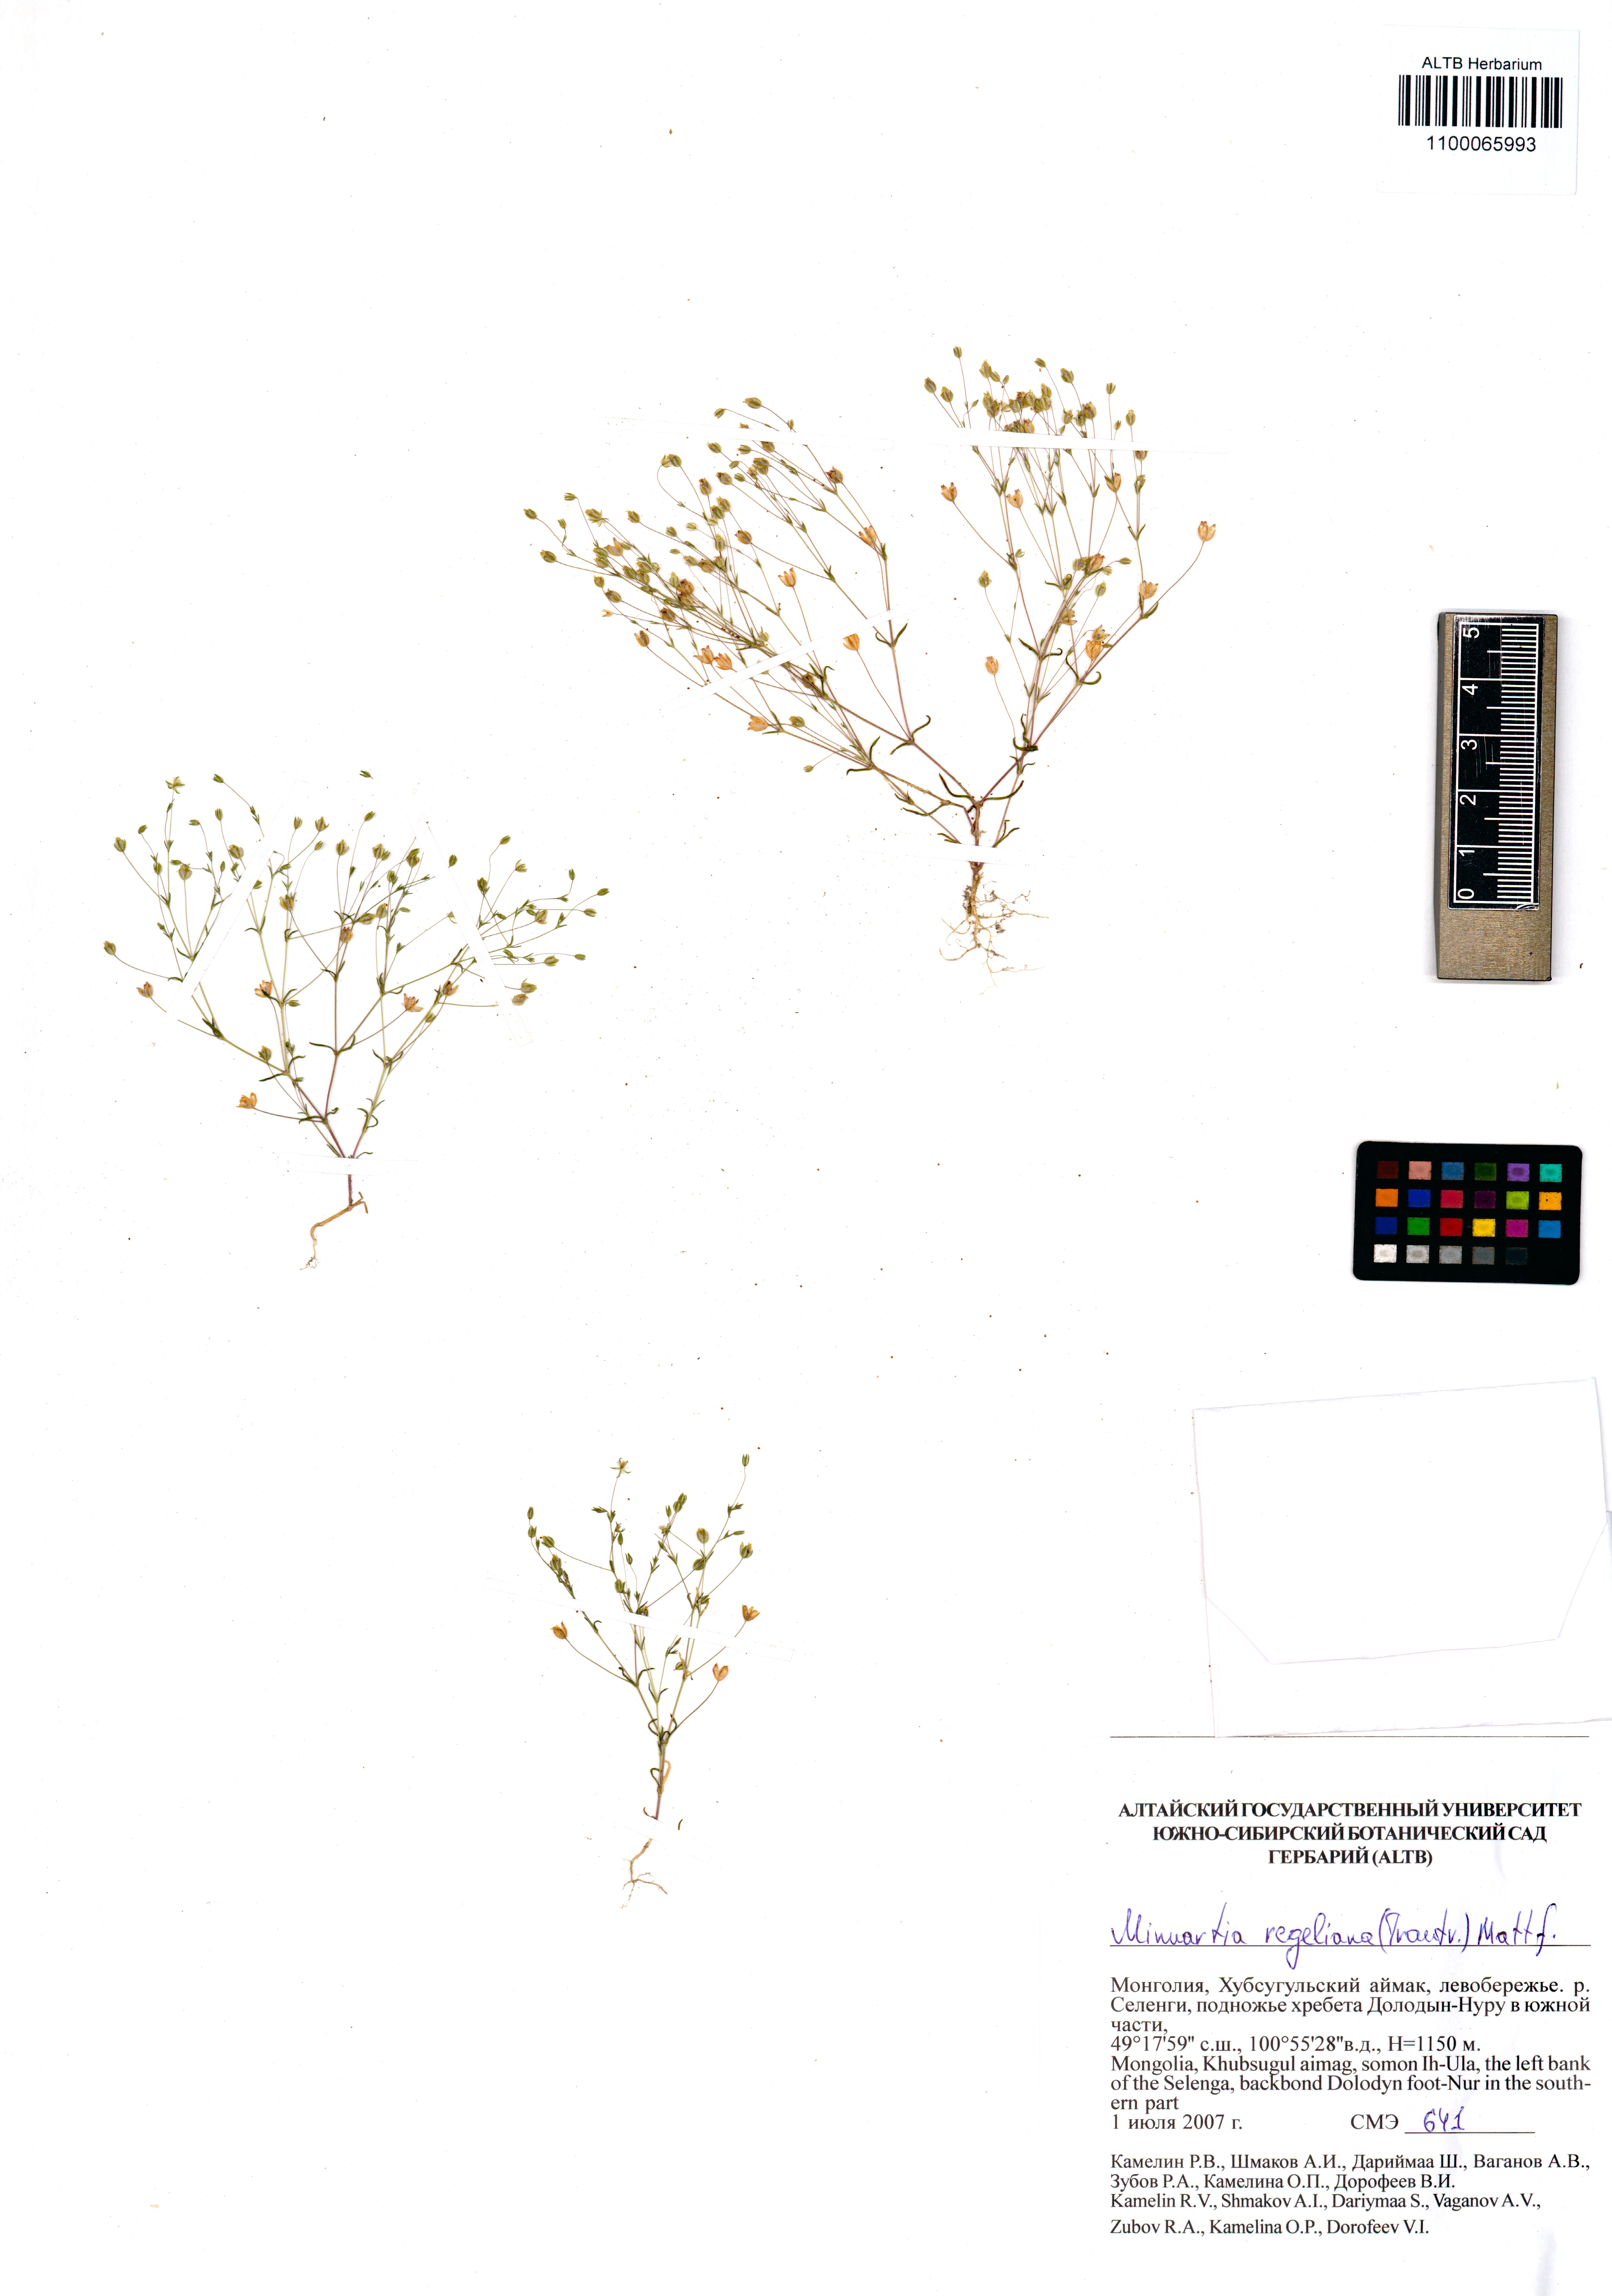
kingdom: Plantae
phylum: Tracheophyta
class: Magnoliopsida
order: Caryophyllales
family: Caryophyllaceae
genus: Sabulina
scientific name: Sabulina regeliana
